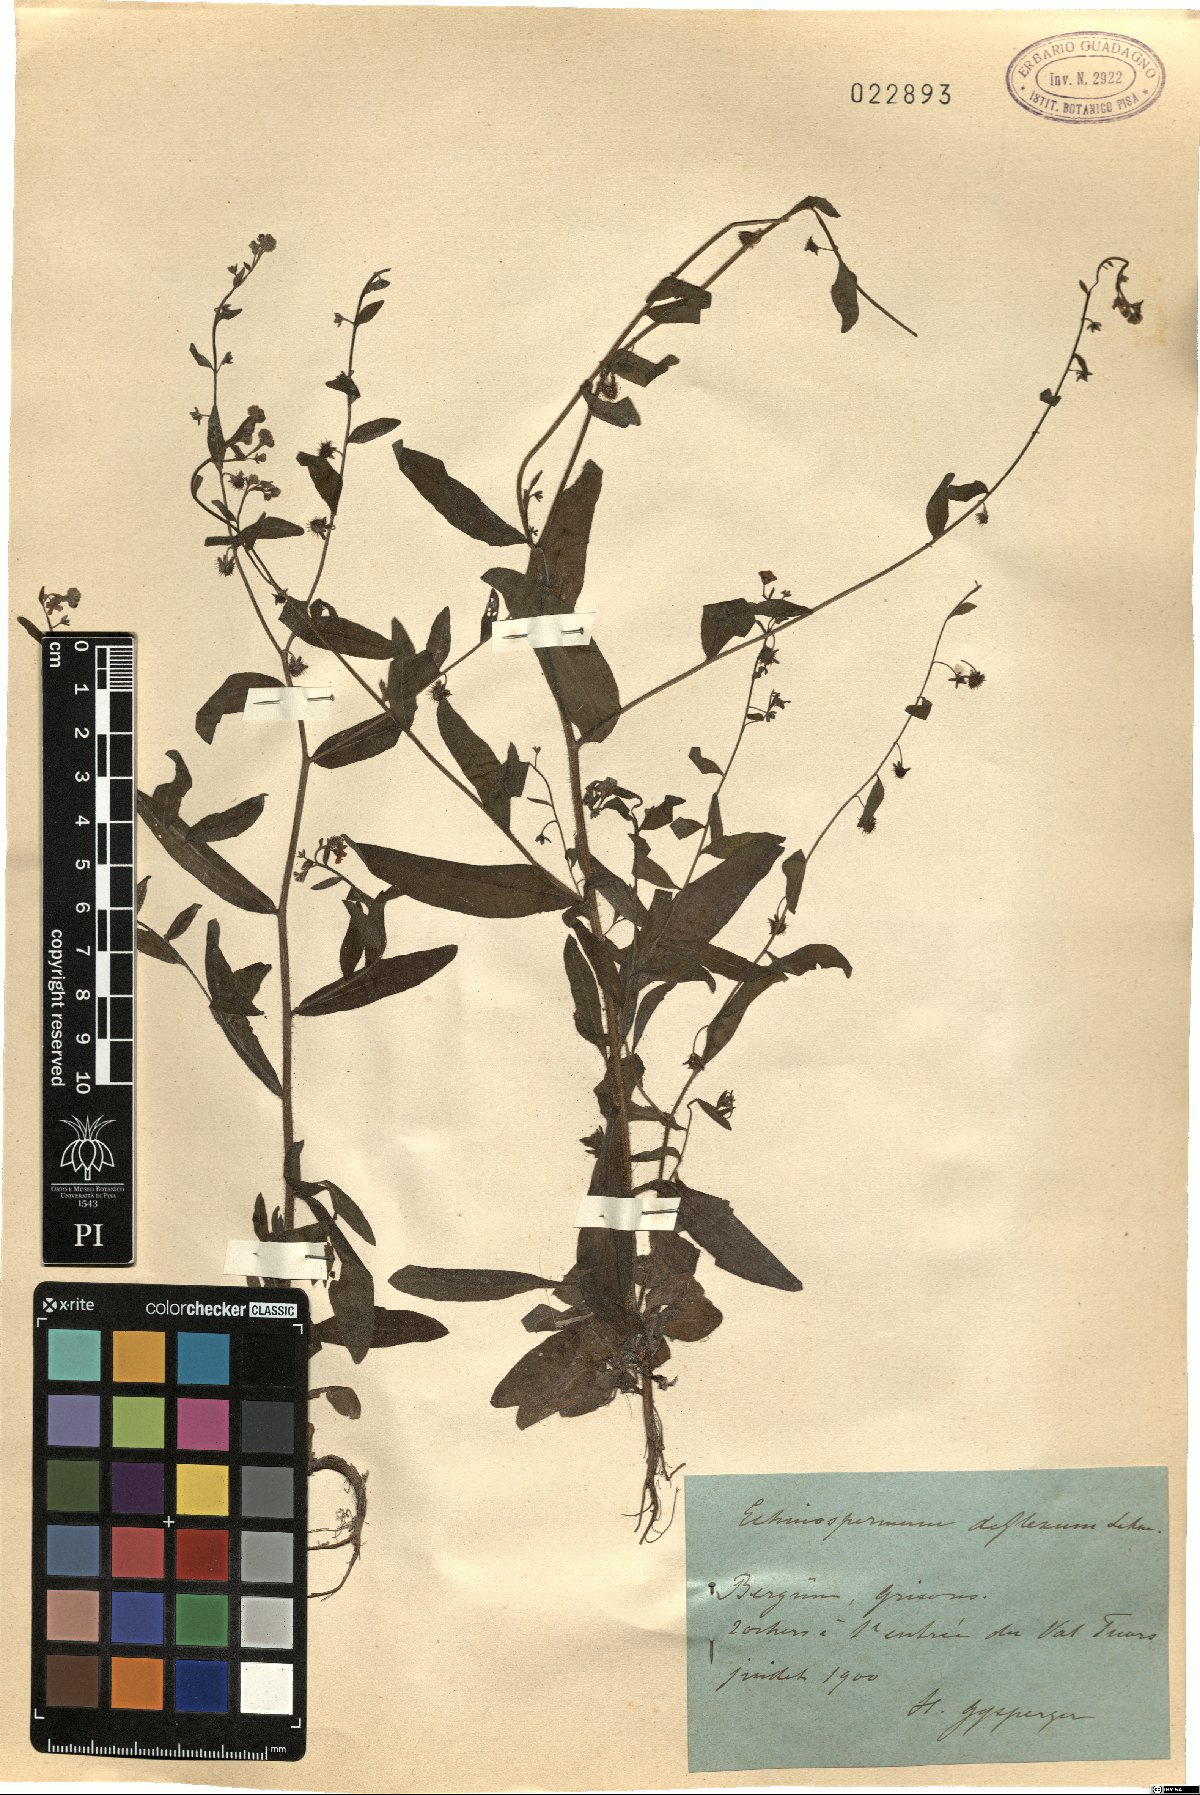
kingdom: Plantae
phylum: Tracheophyta
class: Magnoliopsida
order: Boraginales
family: Boraginaceae
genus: Hackelia
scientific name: Hackelia deflexa
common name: Nodding stickseed
